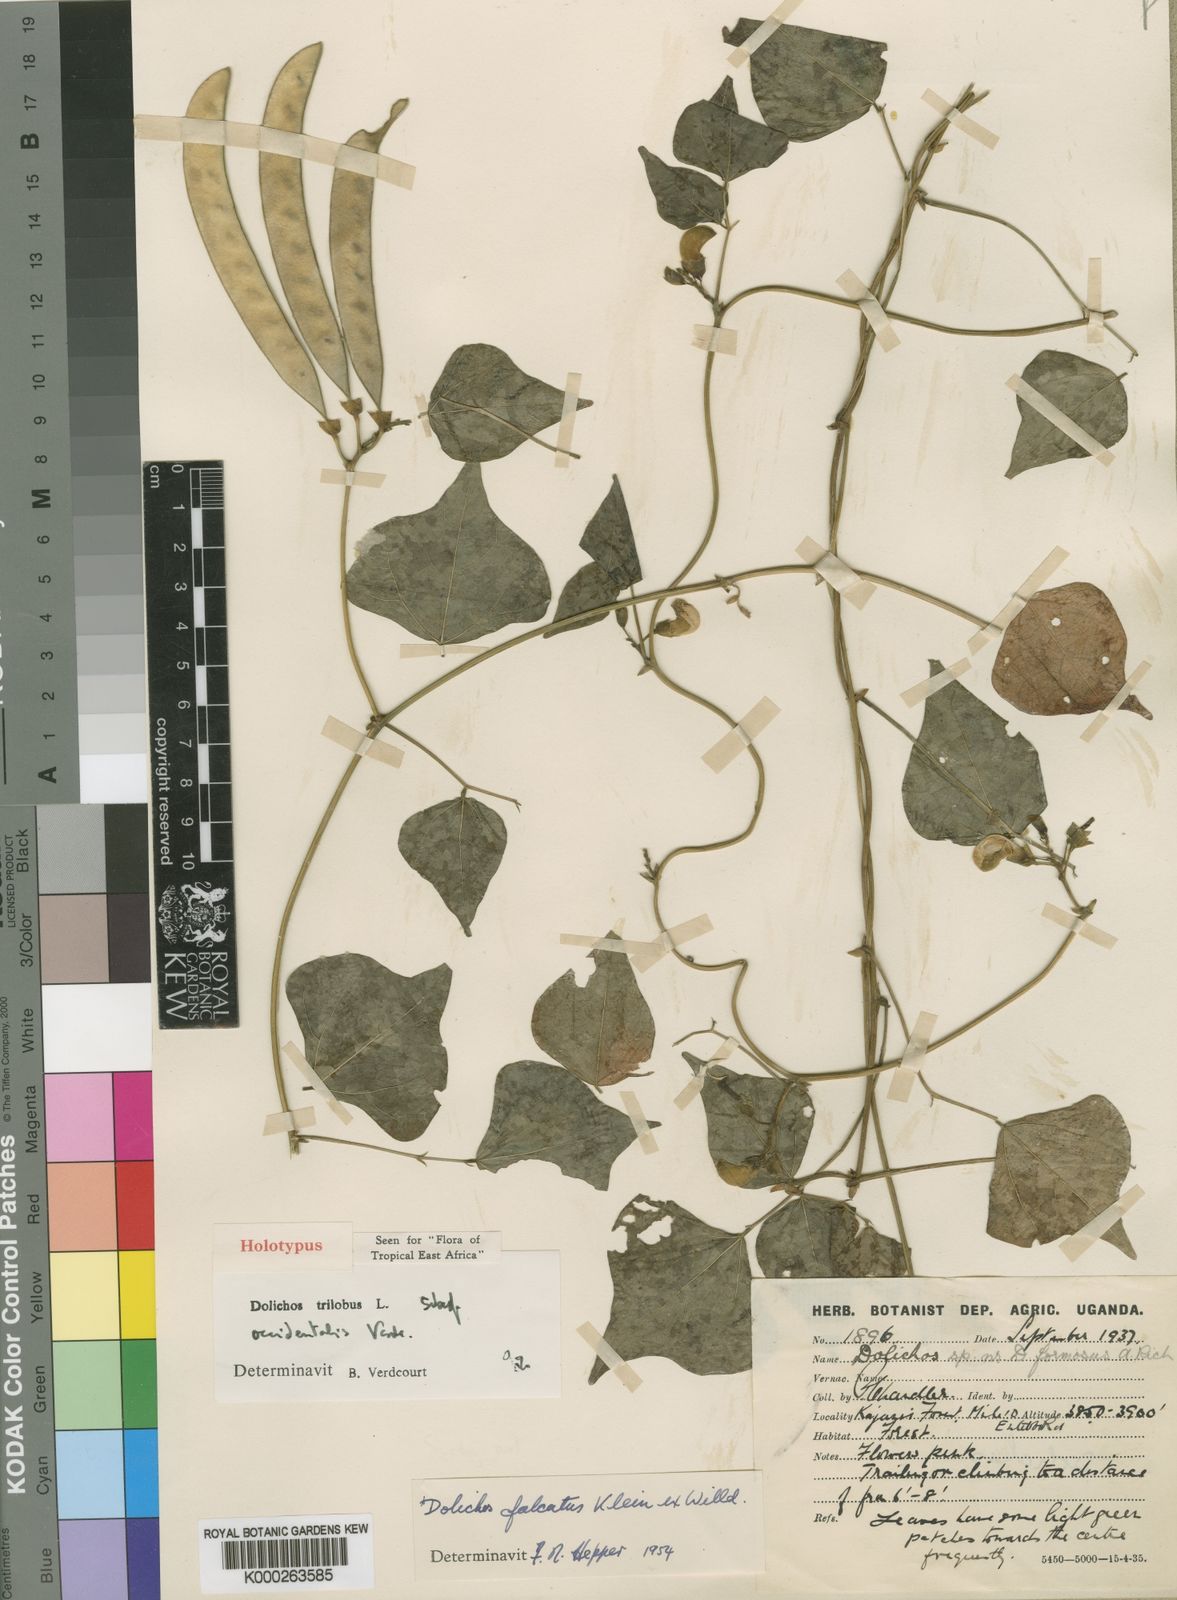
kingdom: Plantae
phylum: Tracheophyta
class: Magnoliopsida
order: Fabales
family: Fabaceae
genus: Dolichos
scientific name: Dolichos trilobus
